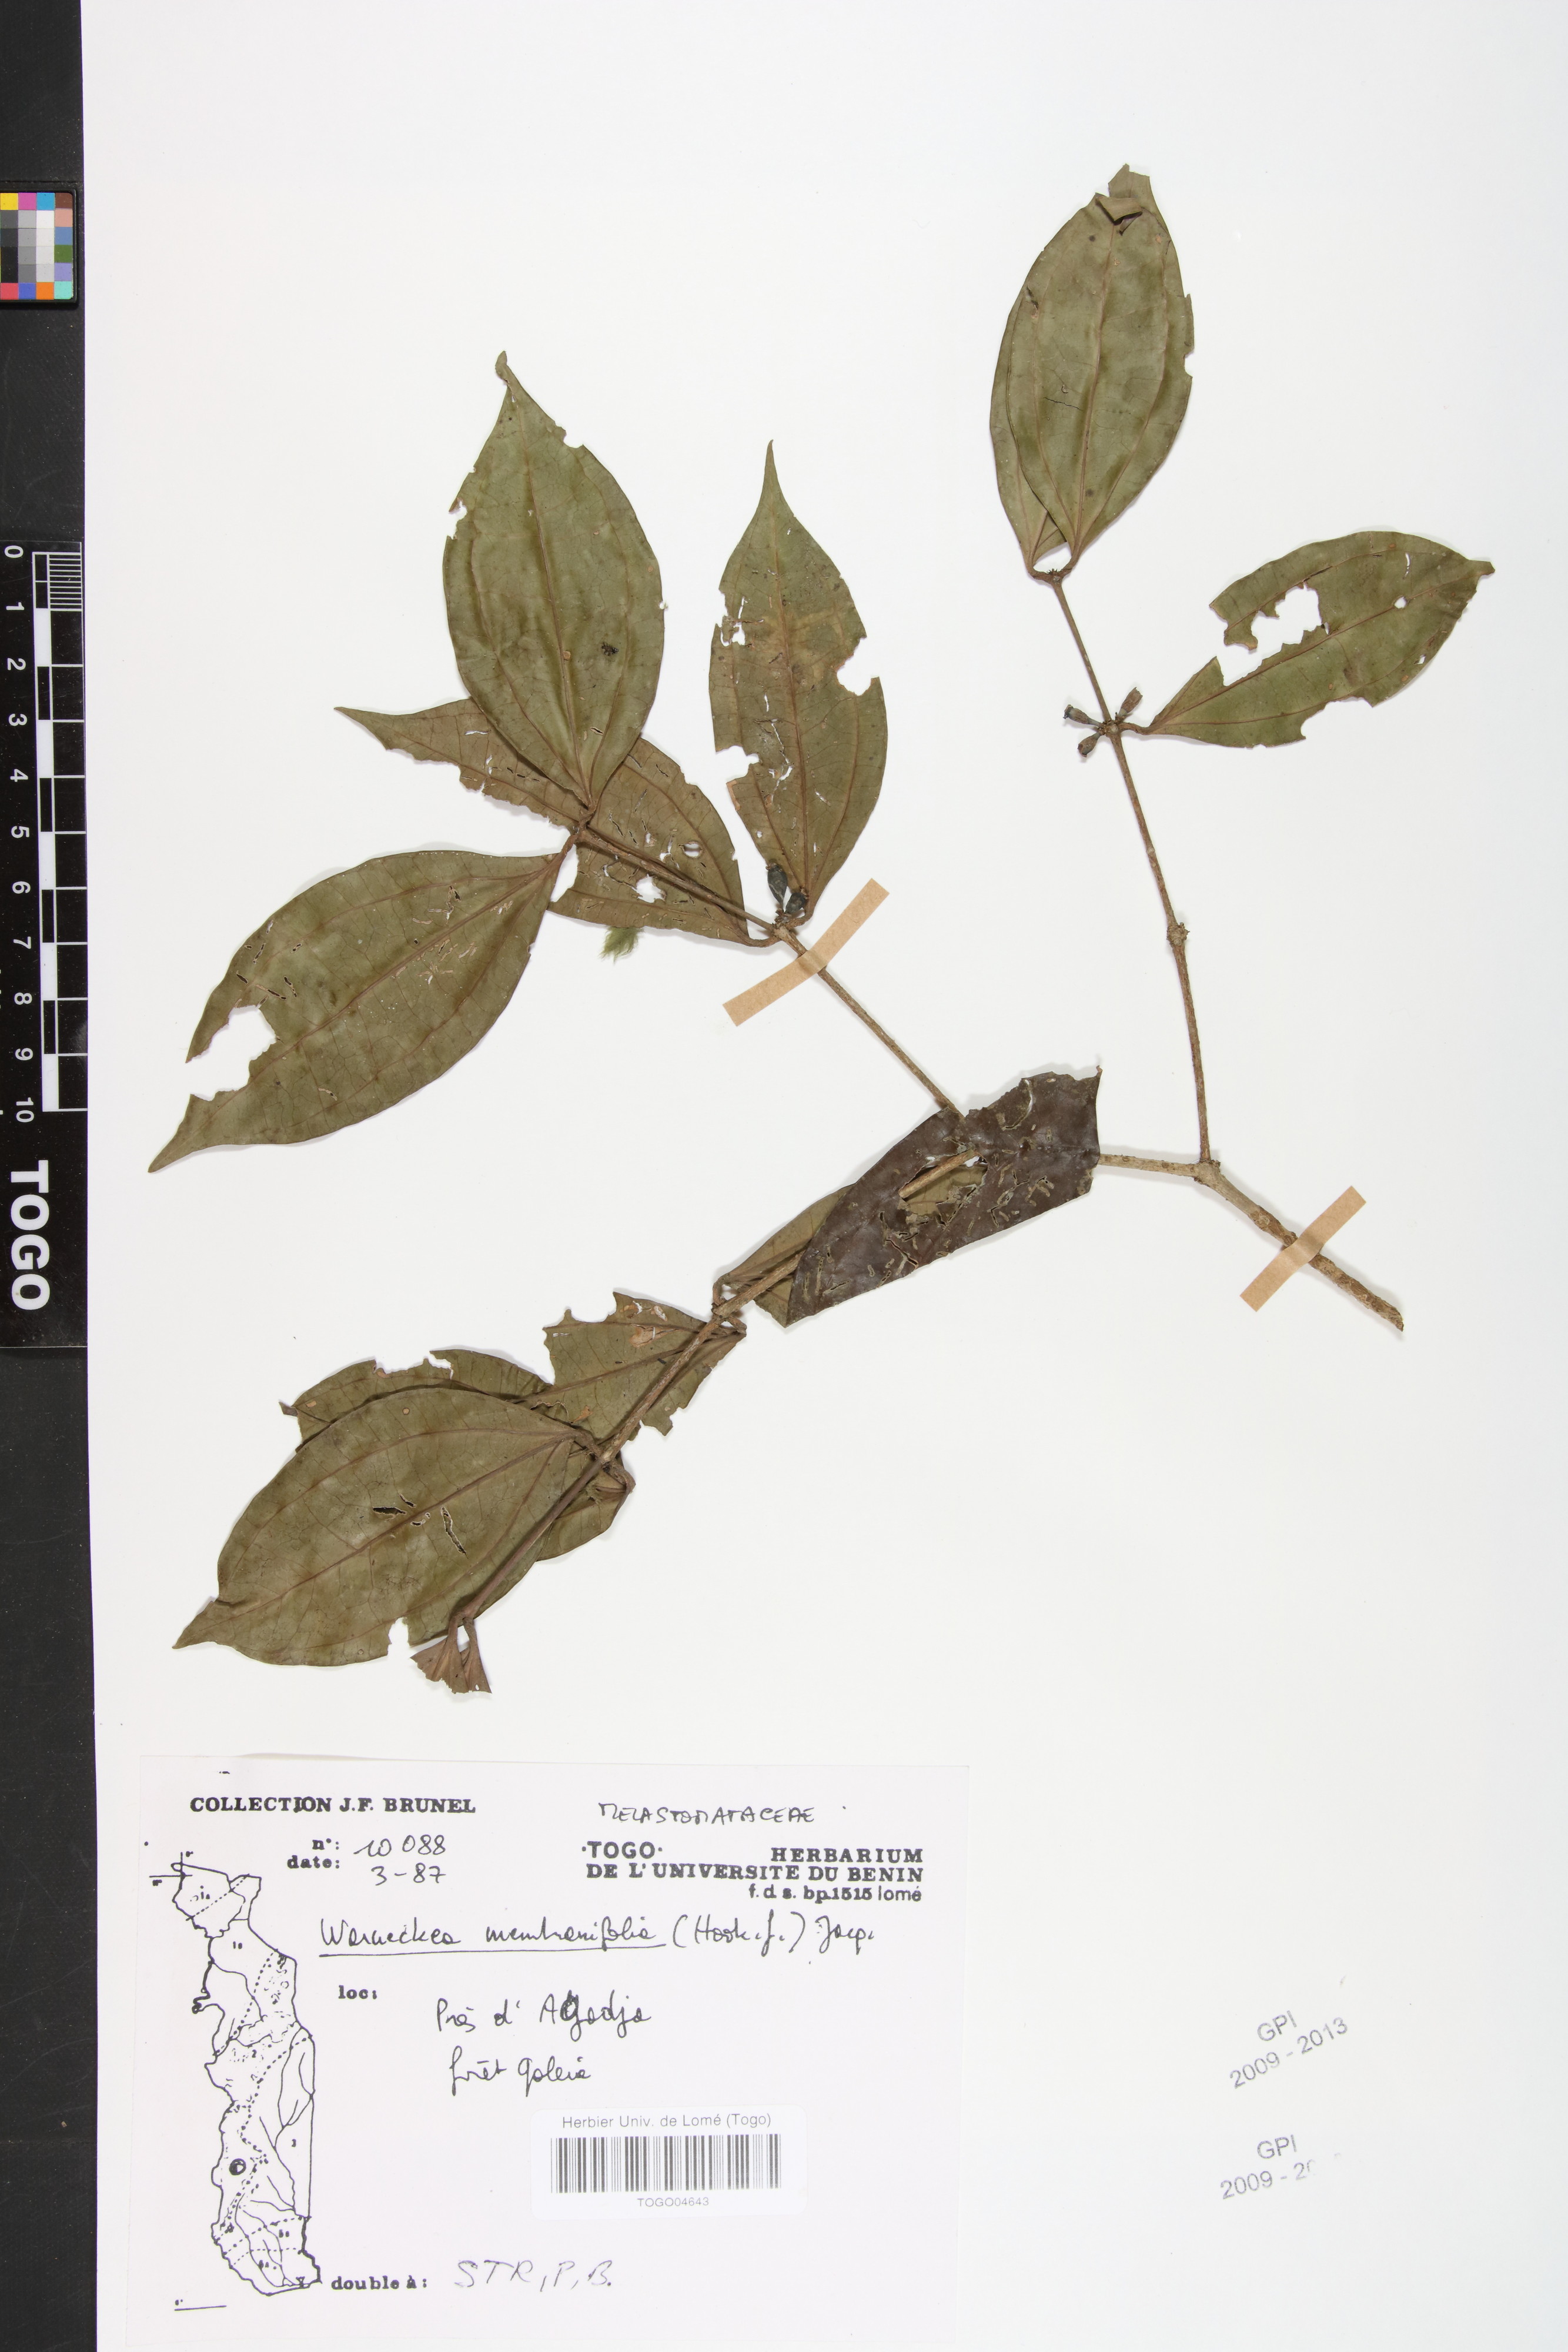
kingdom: Plantae
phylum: Tracheophyta
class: Magnoliopsida
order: Myrtales
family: Melastomataceae
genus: Warneckea
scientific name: Warneckea membranifolia
